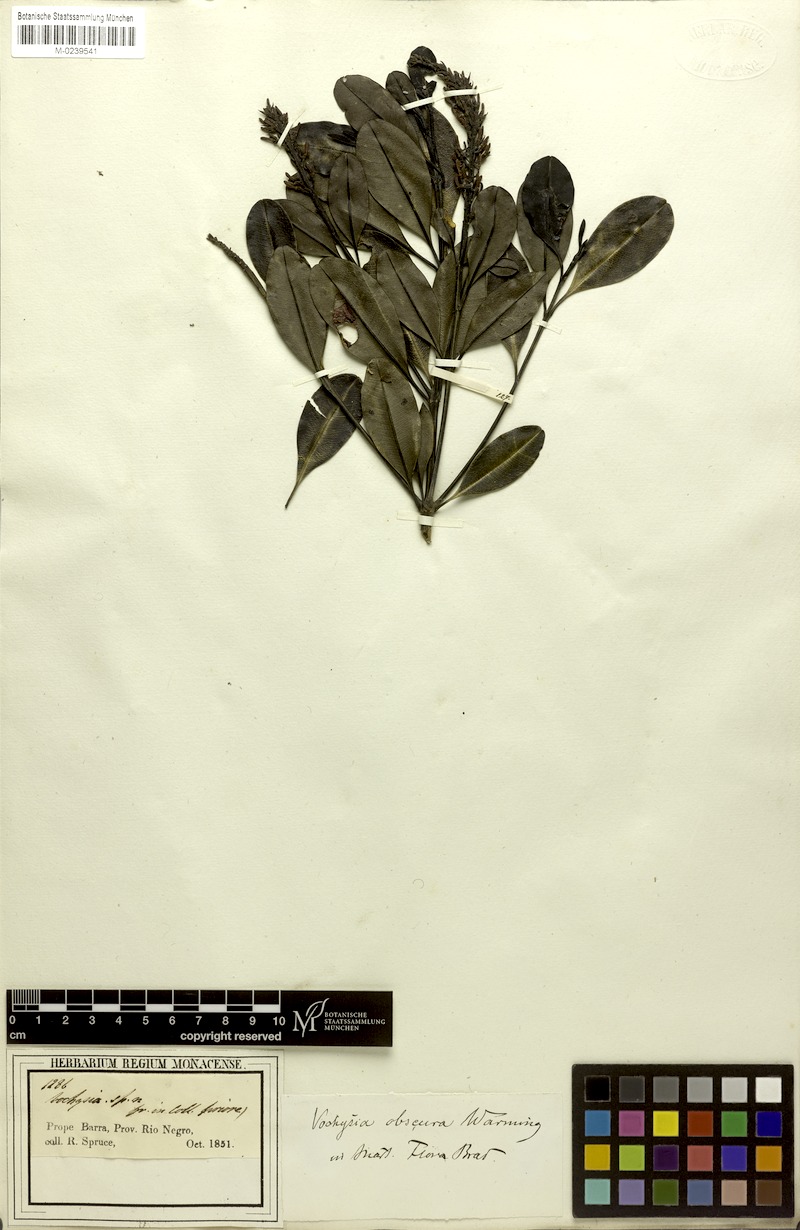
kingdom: Plantae
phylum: Tracheophyta
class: Magnoliopsida
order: Myrtales
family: Vochysiaceae
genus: Vochysia
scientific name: Vochysia obscura
